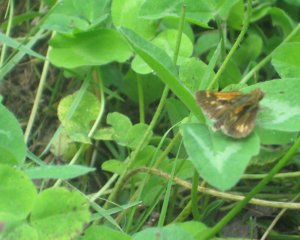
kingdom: Animalia
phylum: Arthropoda
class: Insecta
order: Lepidoptera
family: Hesperiidae
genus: Polites
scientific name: Polites coras
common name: Peck's Skipper
